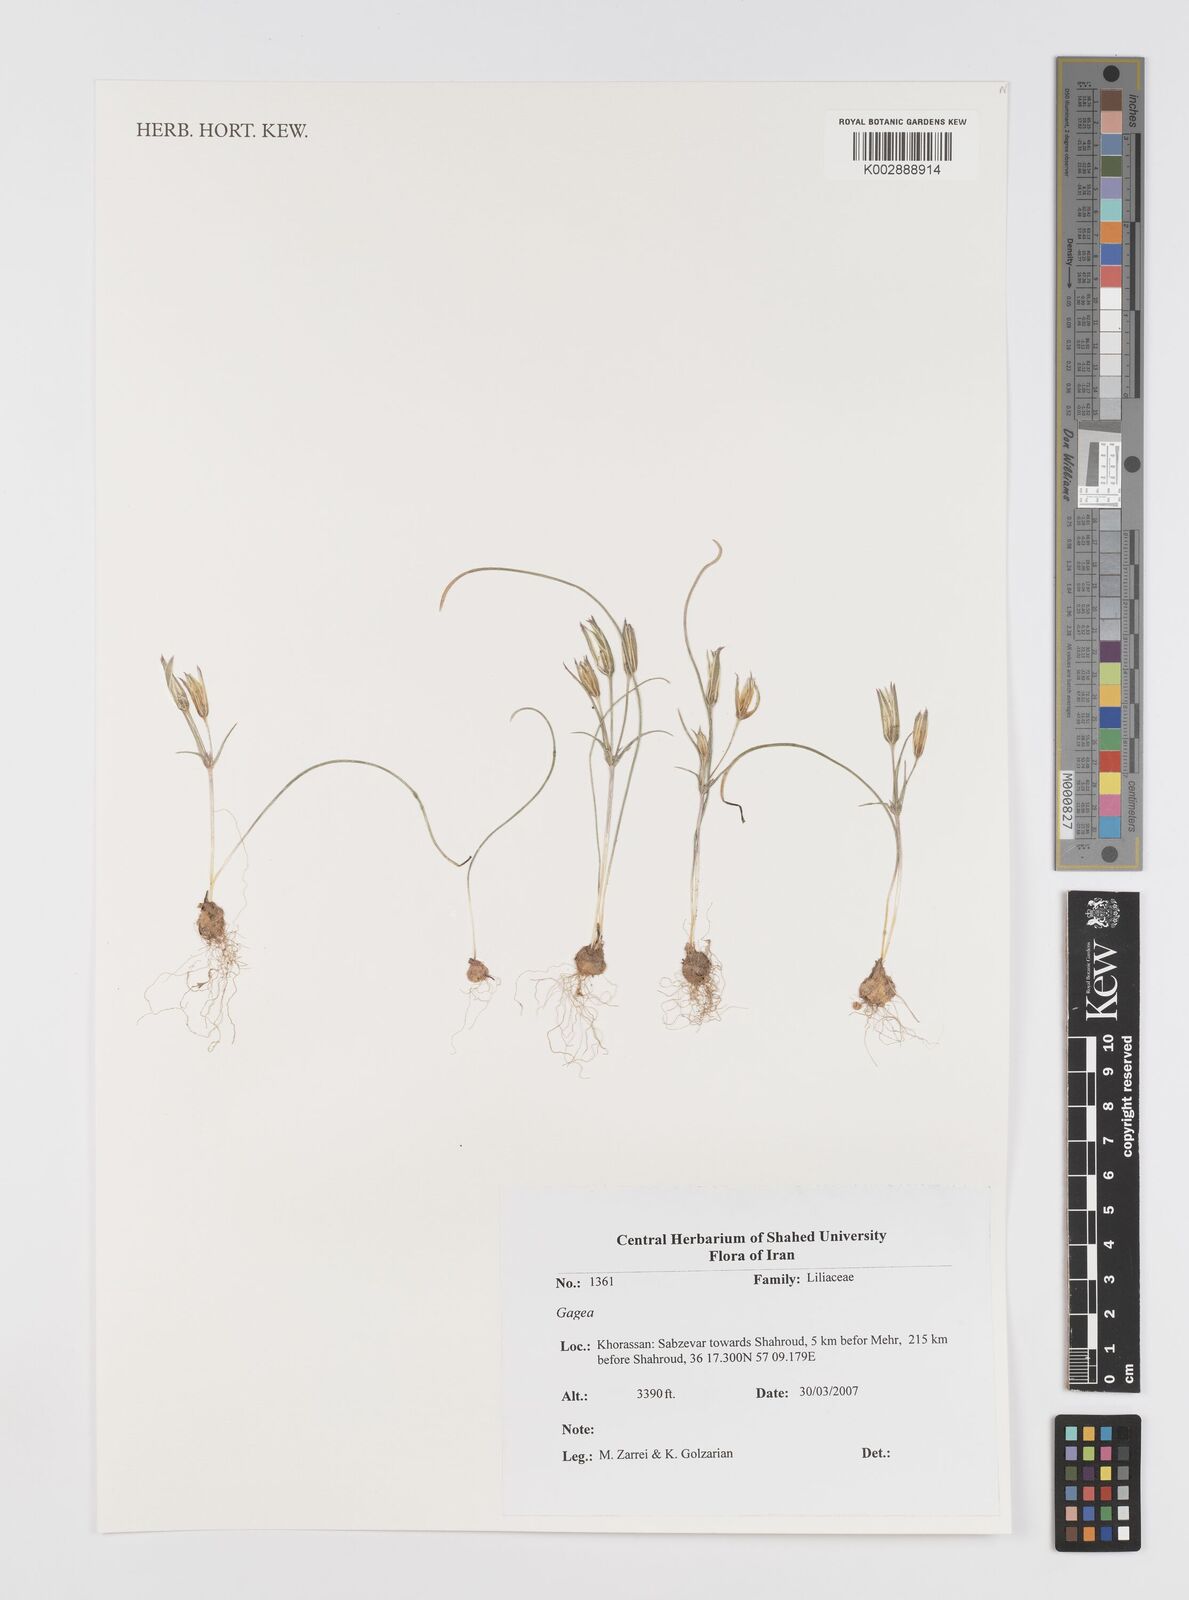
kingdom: Plantae
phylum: Tracheophyta
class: Liliopsida
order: Liliales
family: Liliaceae
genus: Gagea
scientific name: Gagea
